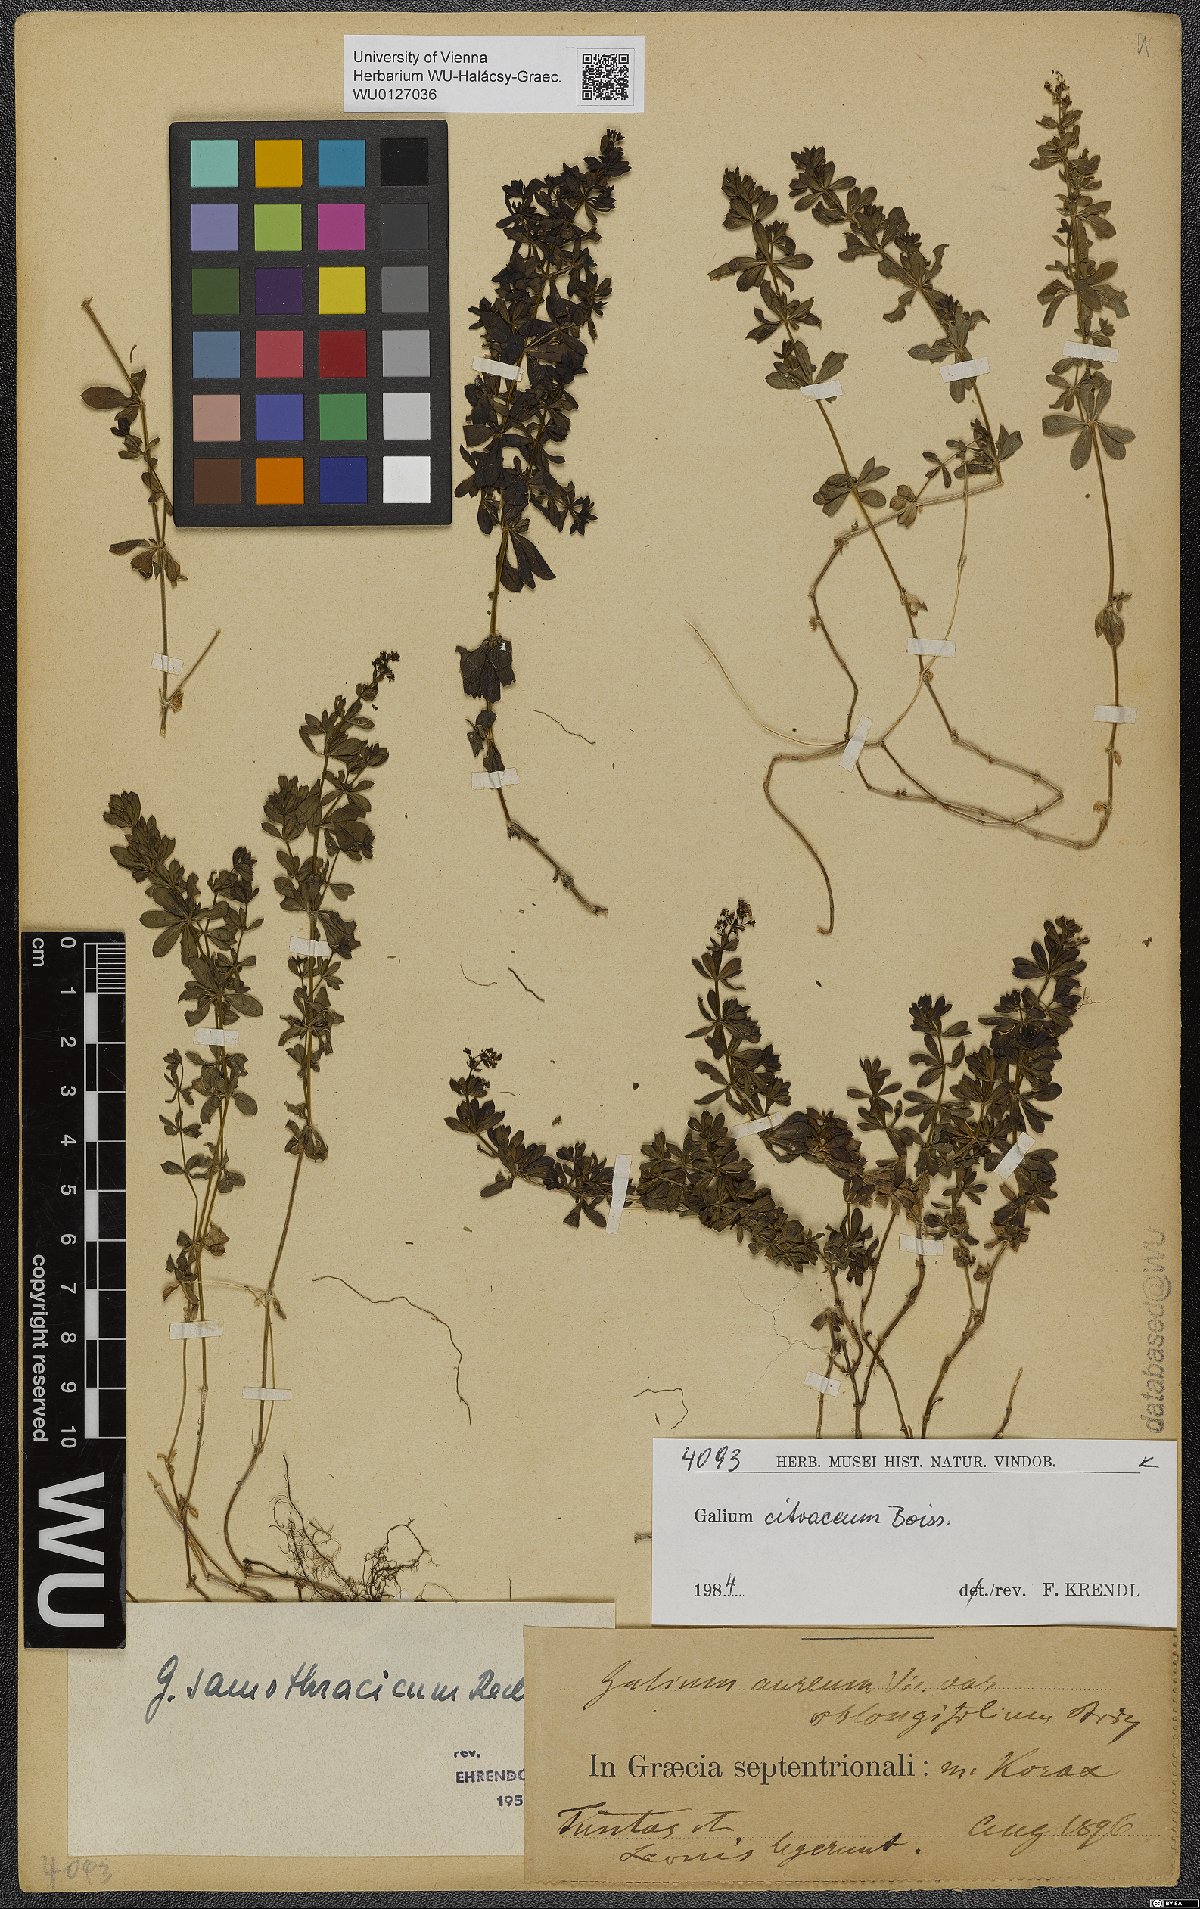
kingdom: Plantae
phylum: Tracheophyta
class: Magnoliopsida
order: Gentianales
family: Rubiaceae
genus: Galium
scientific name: Galium citraceum
